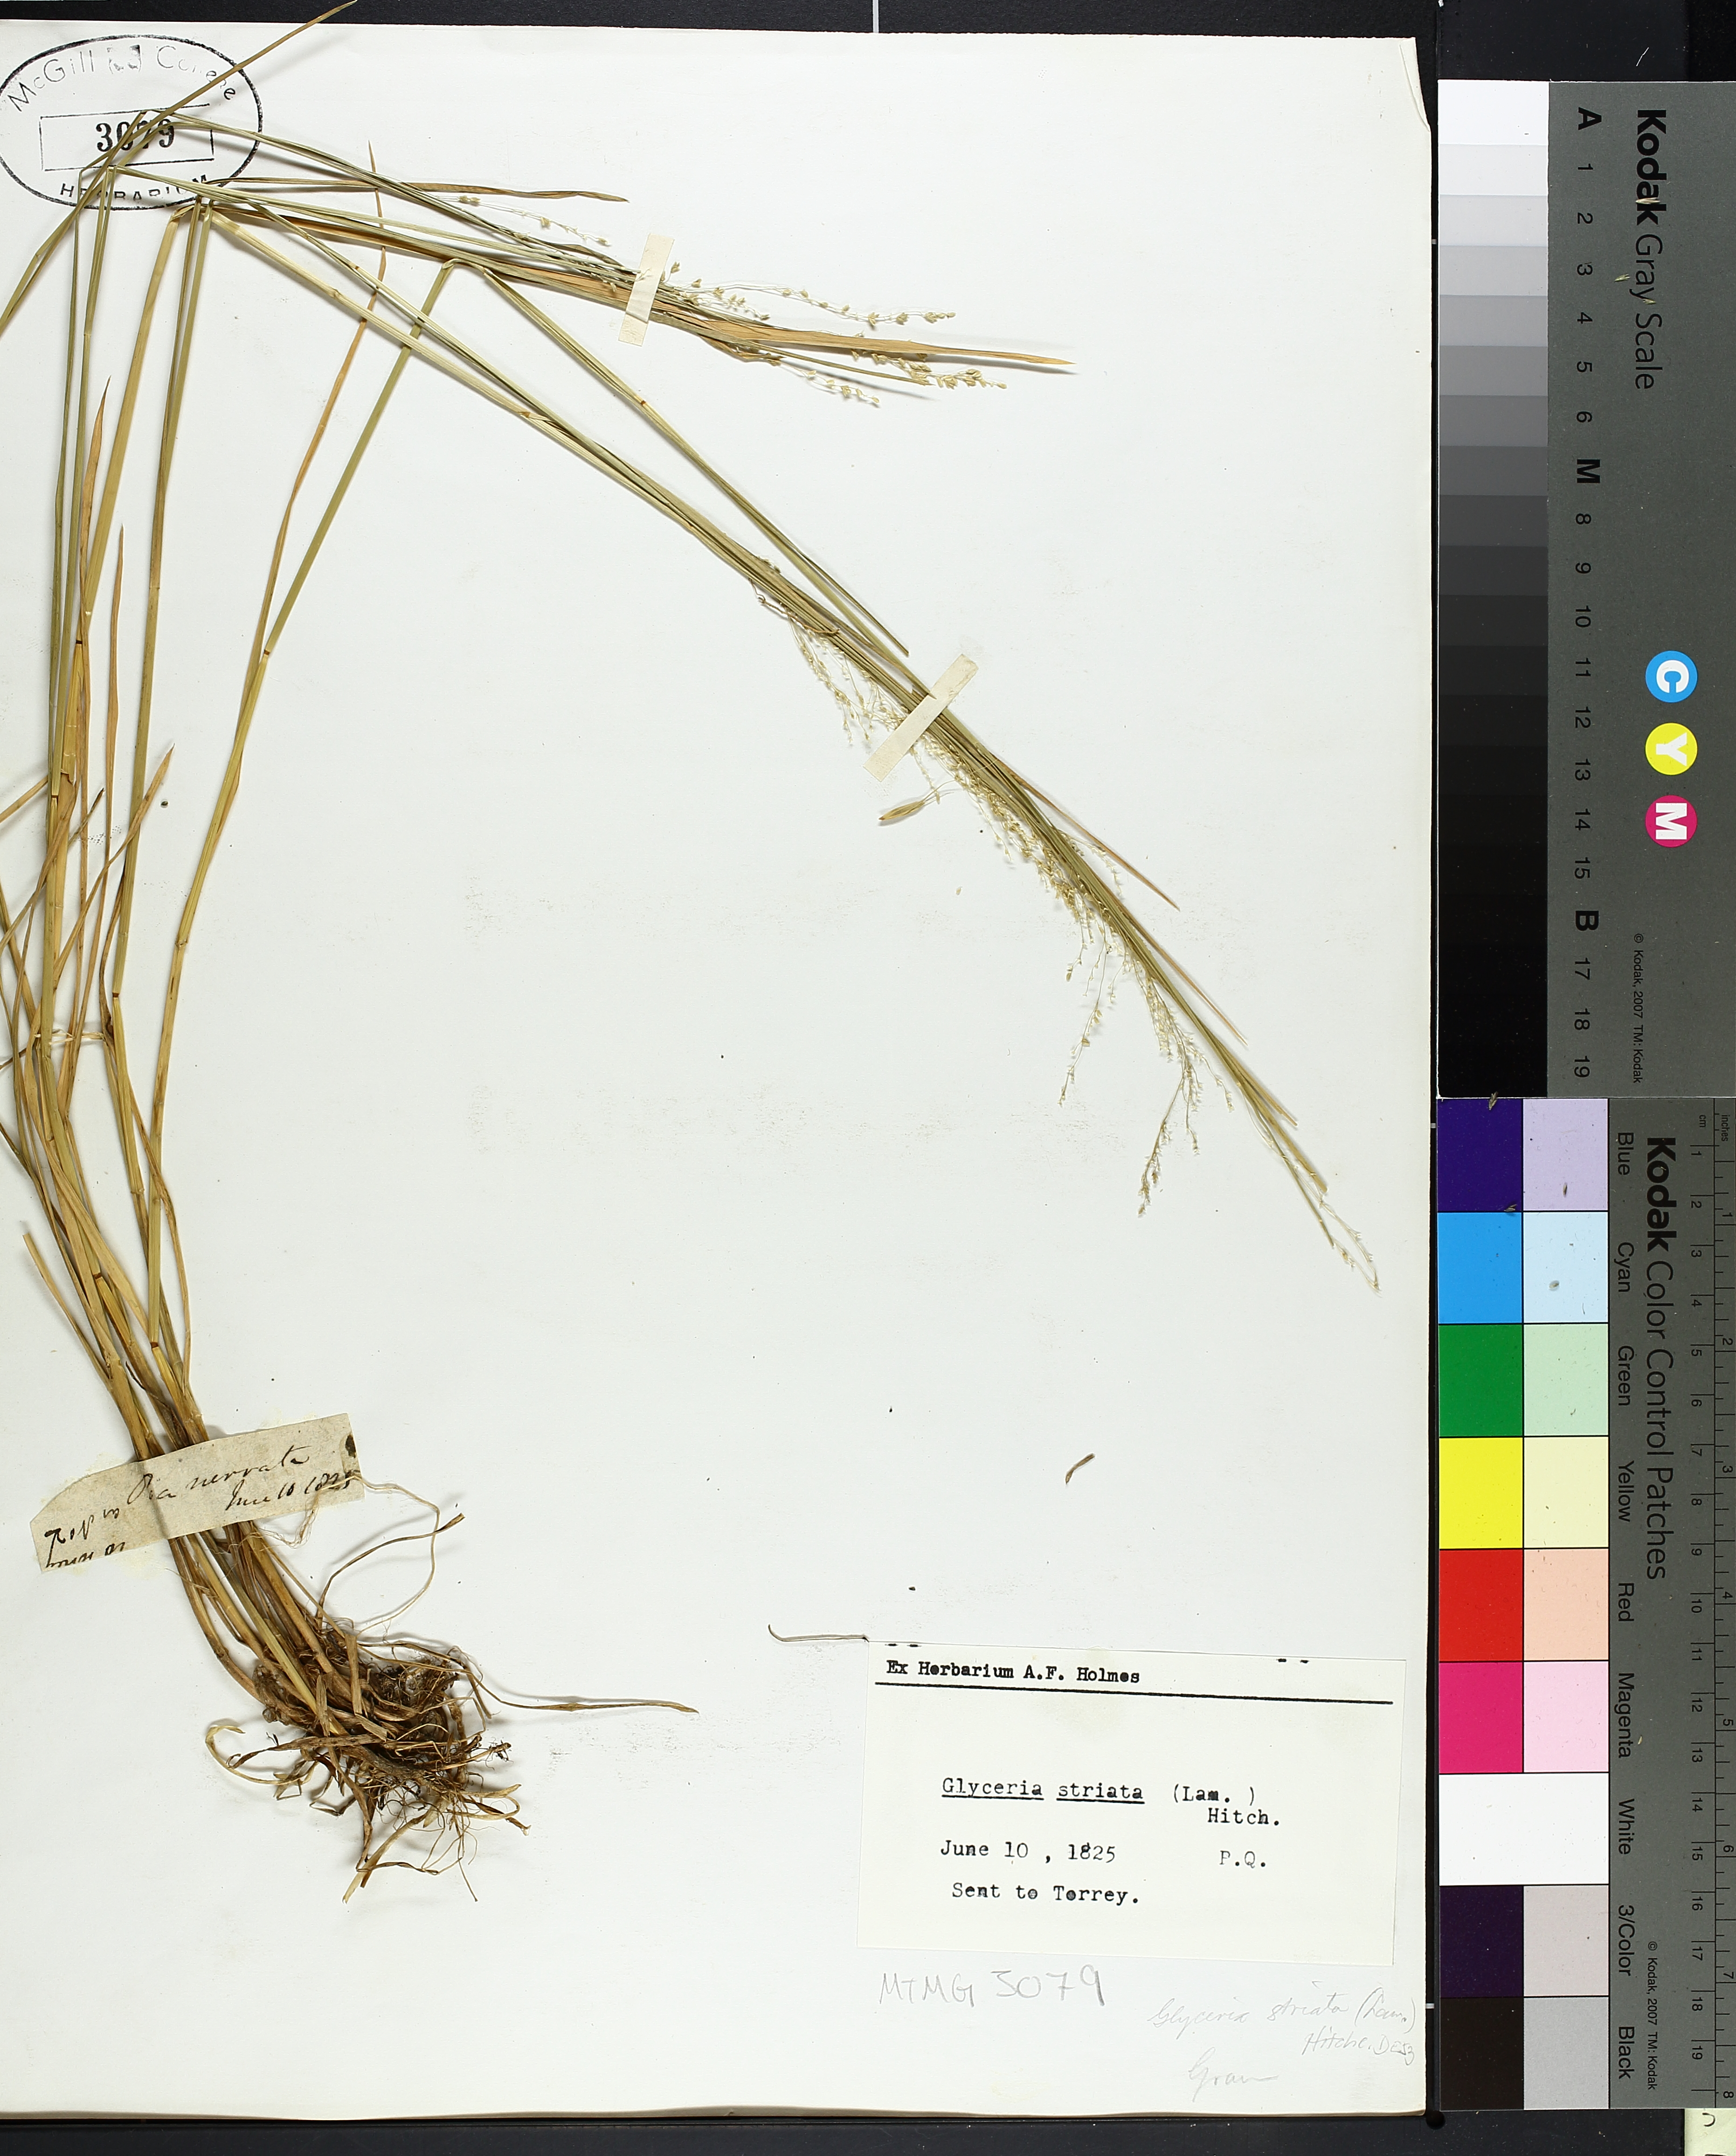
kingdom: Plantae
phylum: Tracheophyta
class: Liliopsida
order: Poales
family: Poaceae
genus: Glyceria
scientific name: Glyceria striata
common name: Fowl manna grass
